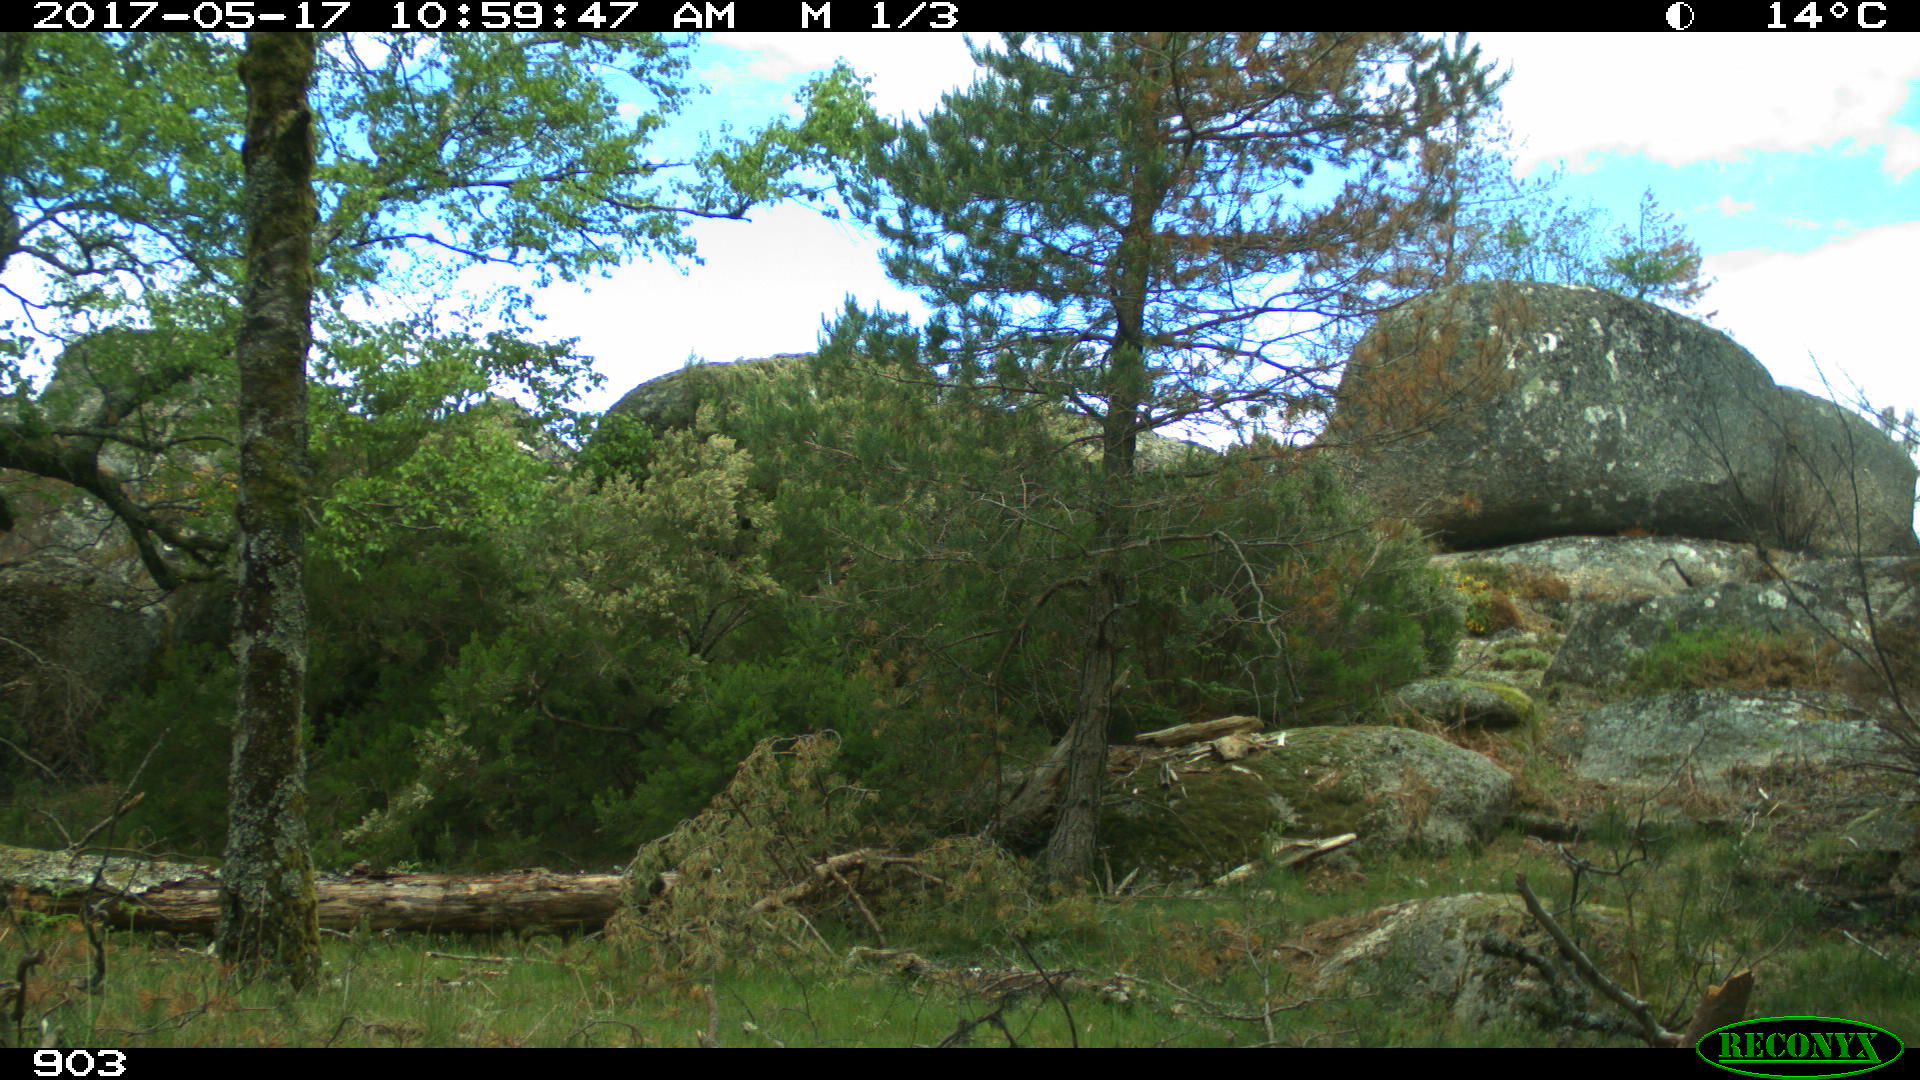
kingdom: Animalia
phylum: Chordata
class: Mammalia
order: Perissodactyla
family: Equidae
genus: Equus
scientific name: Equus caballus
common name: Horse
